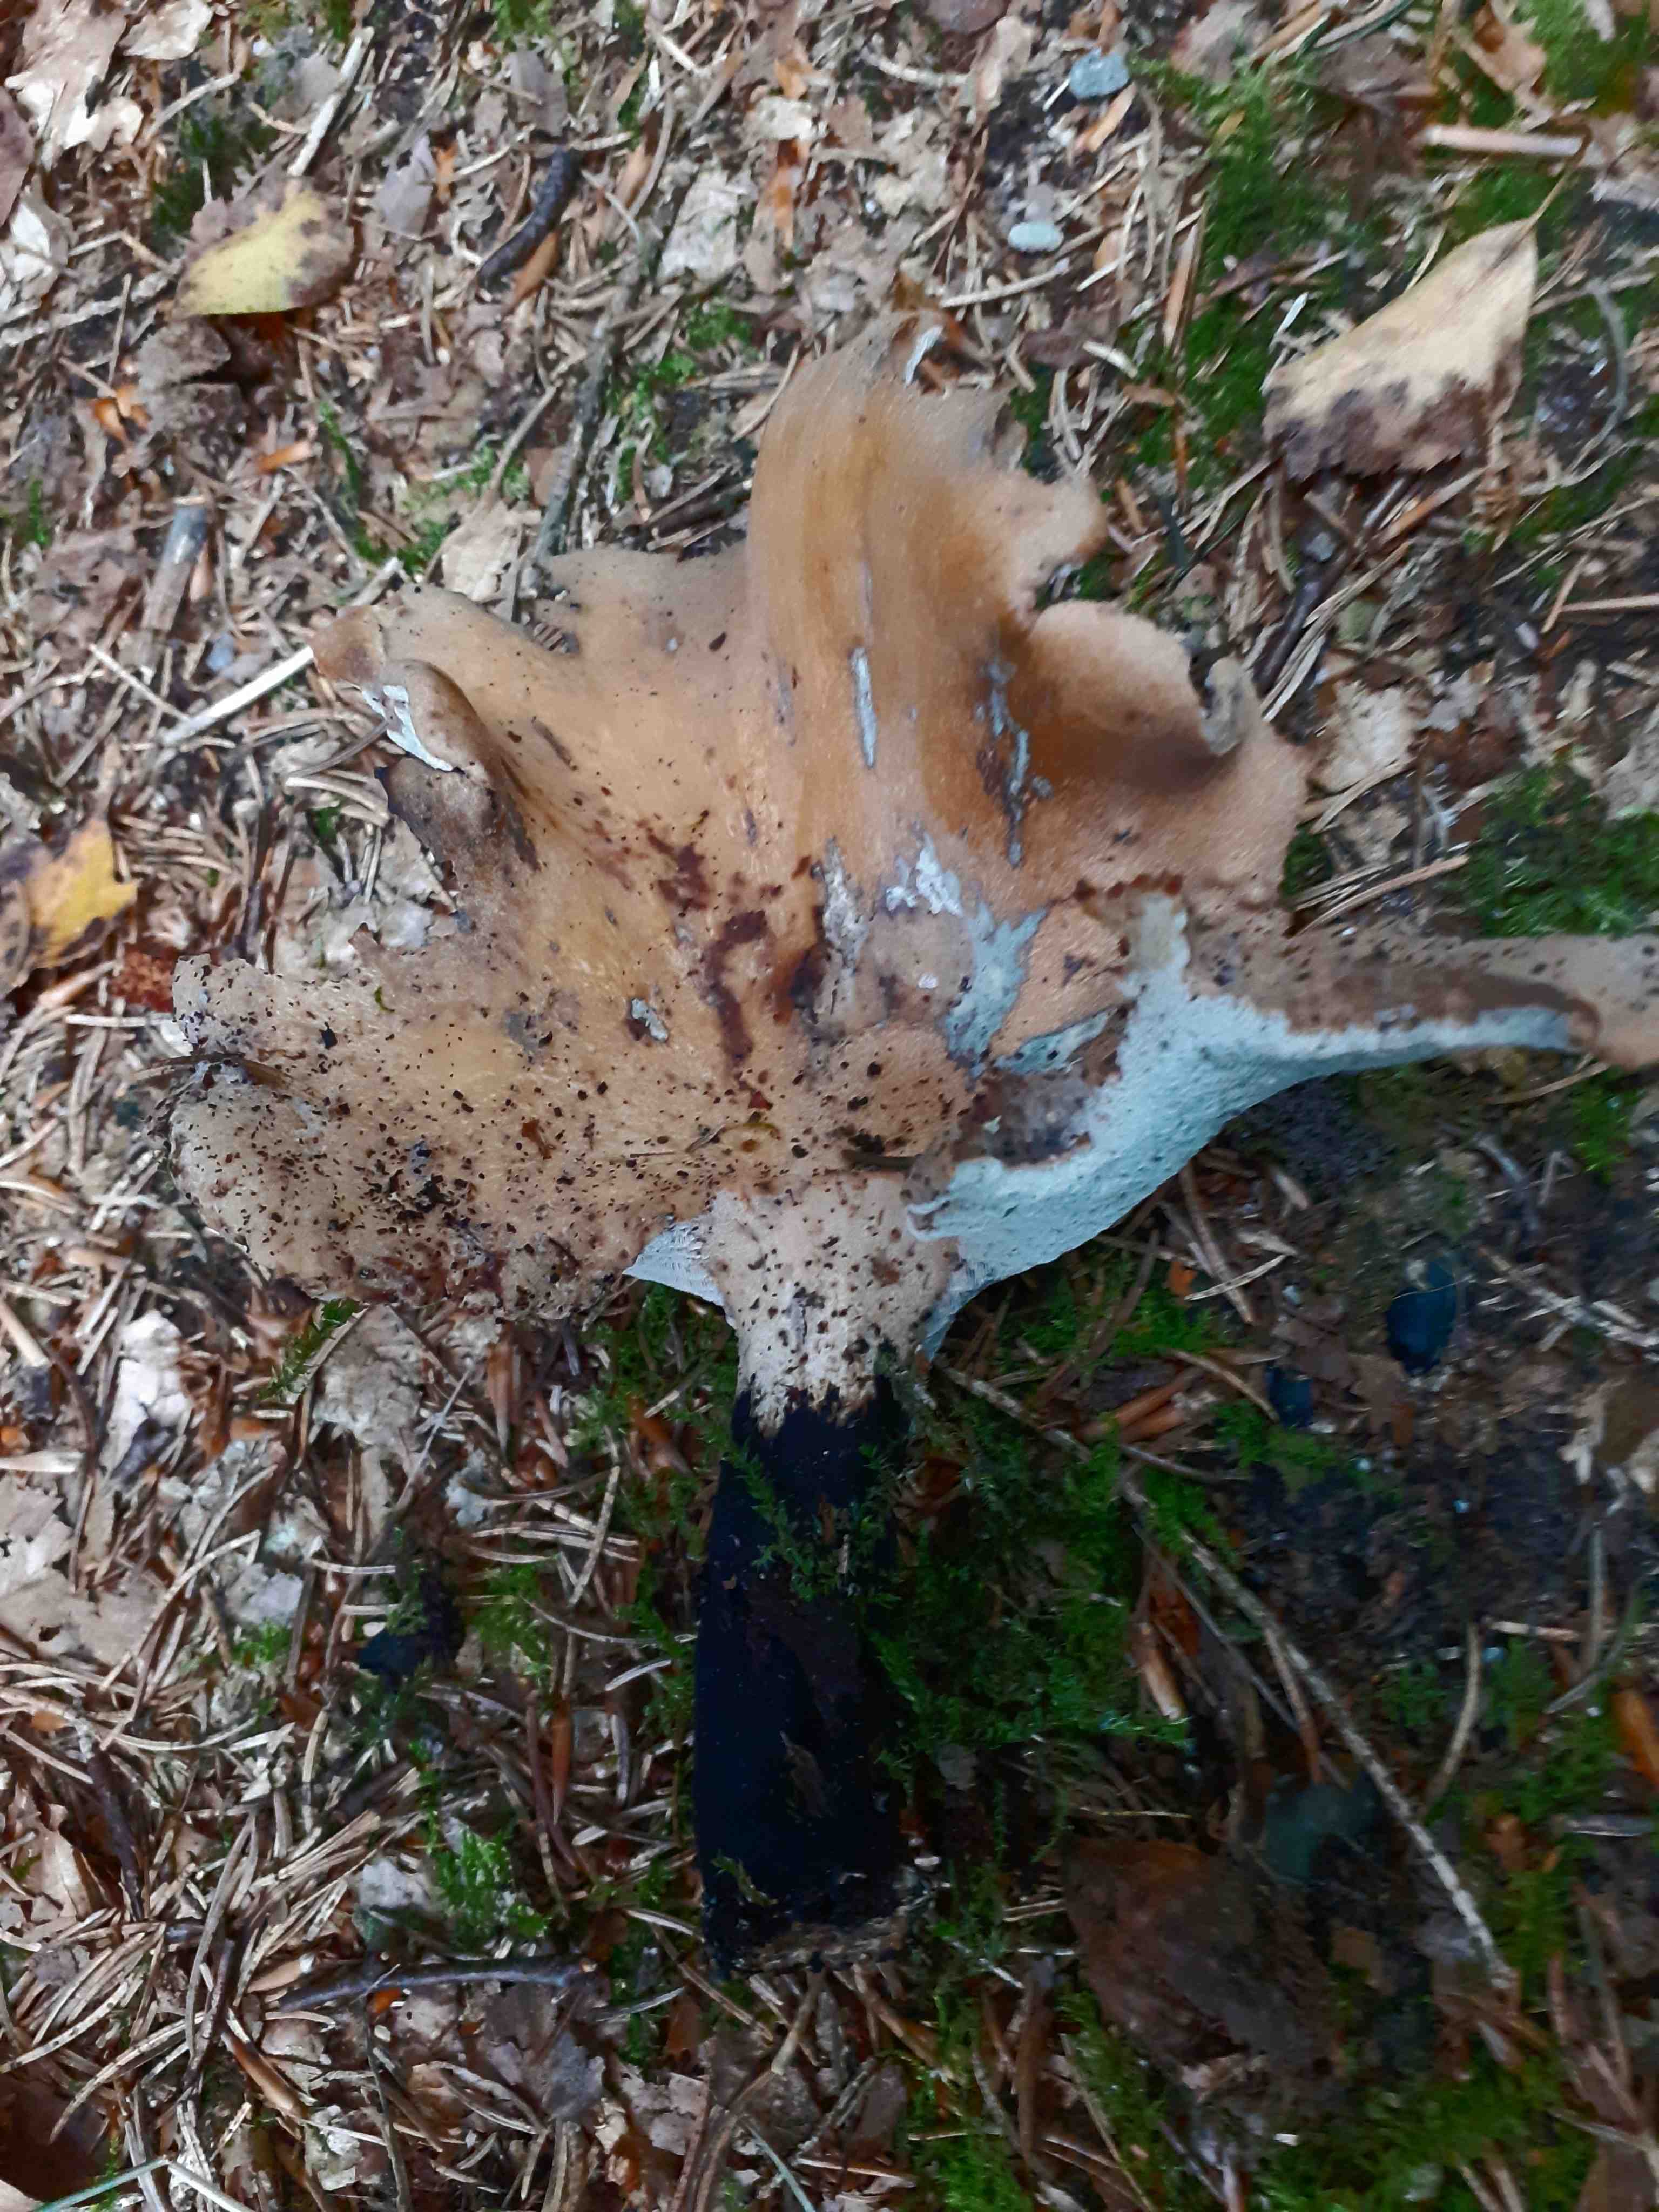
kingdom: Fungi
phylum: Basidiomycota
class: Agaricomycetes
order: Polyporales
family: Polyporaceae
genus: Cerioporus
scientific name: Cerioporus varius
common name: foranderlig stilkporesvamp
